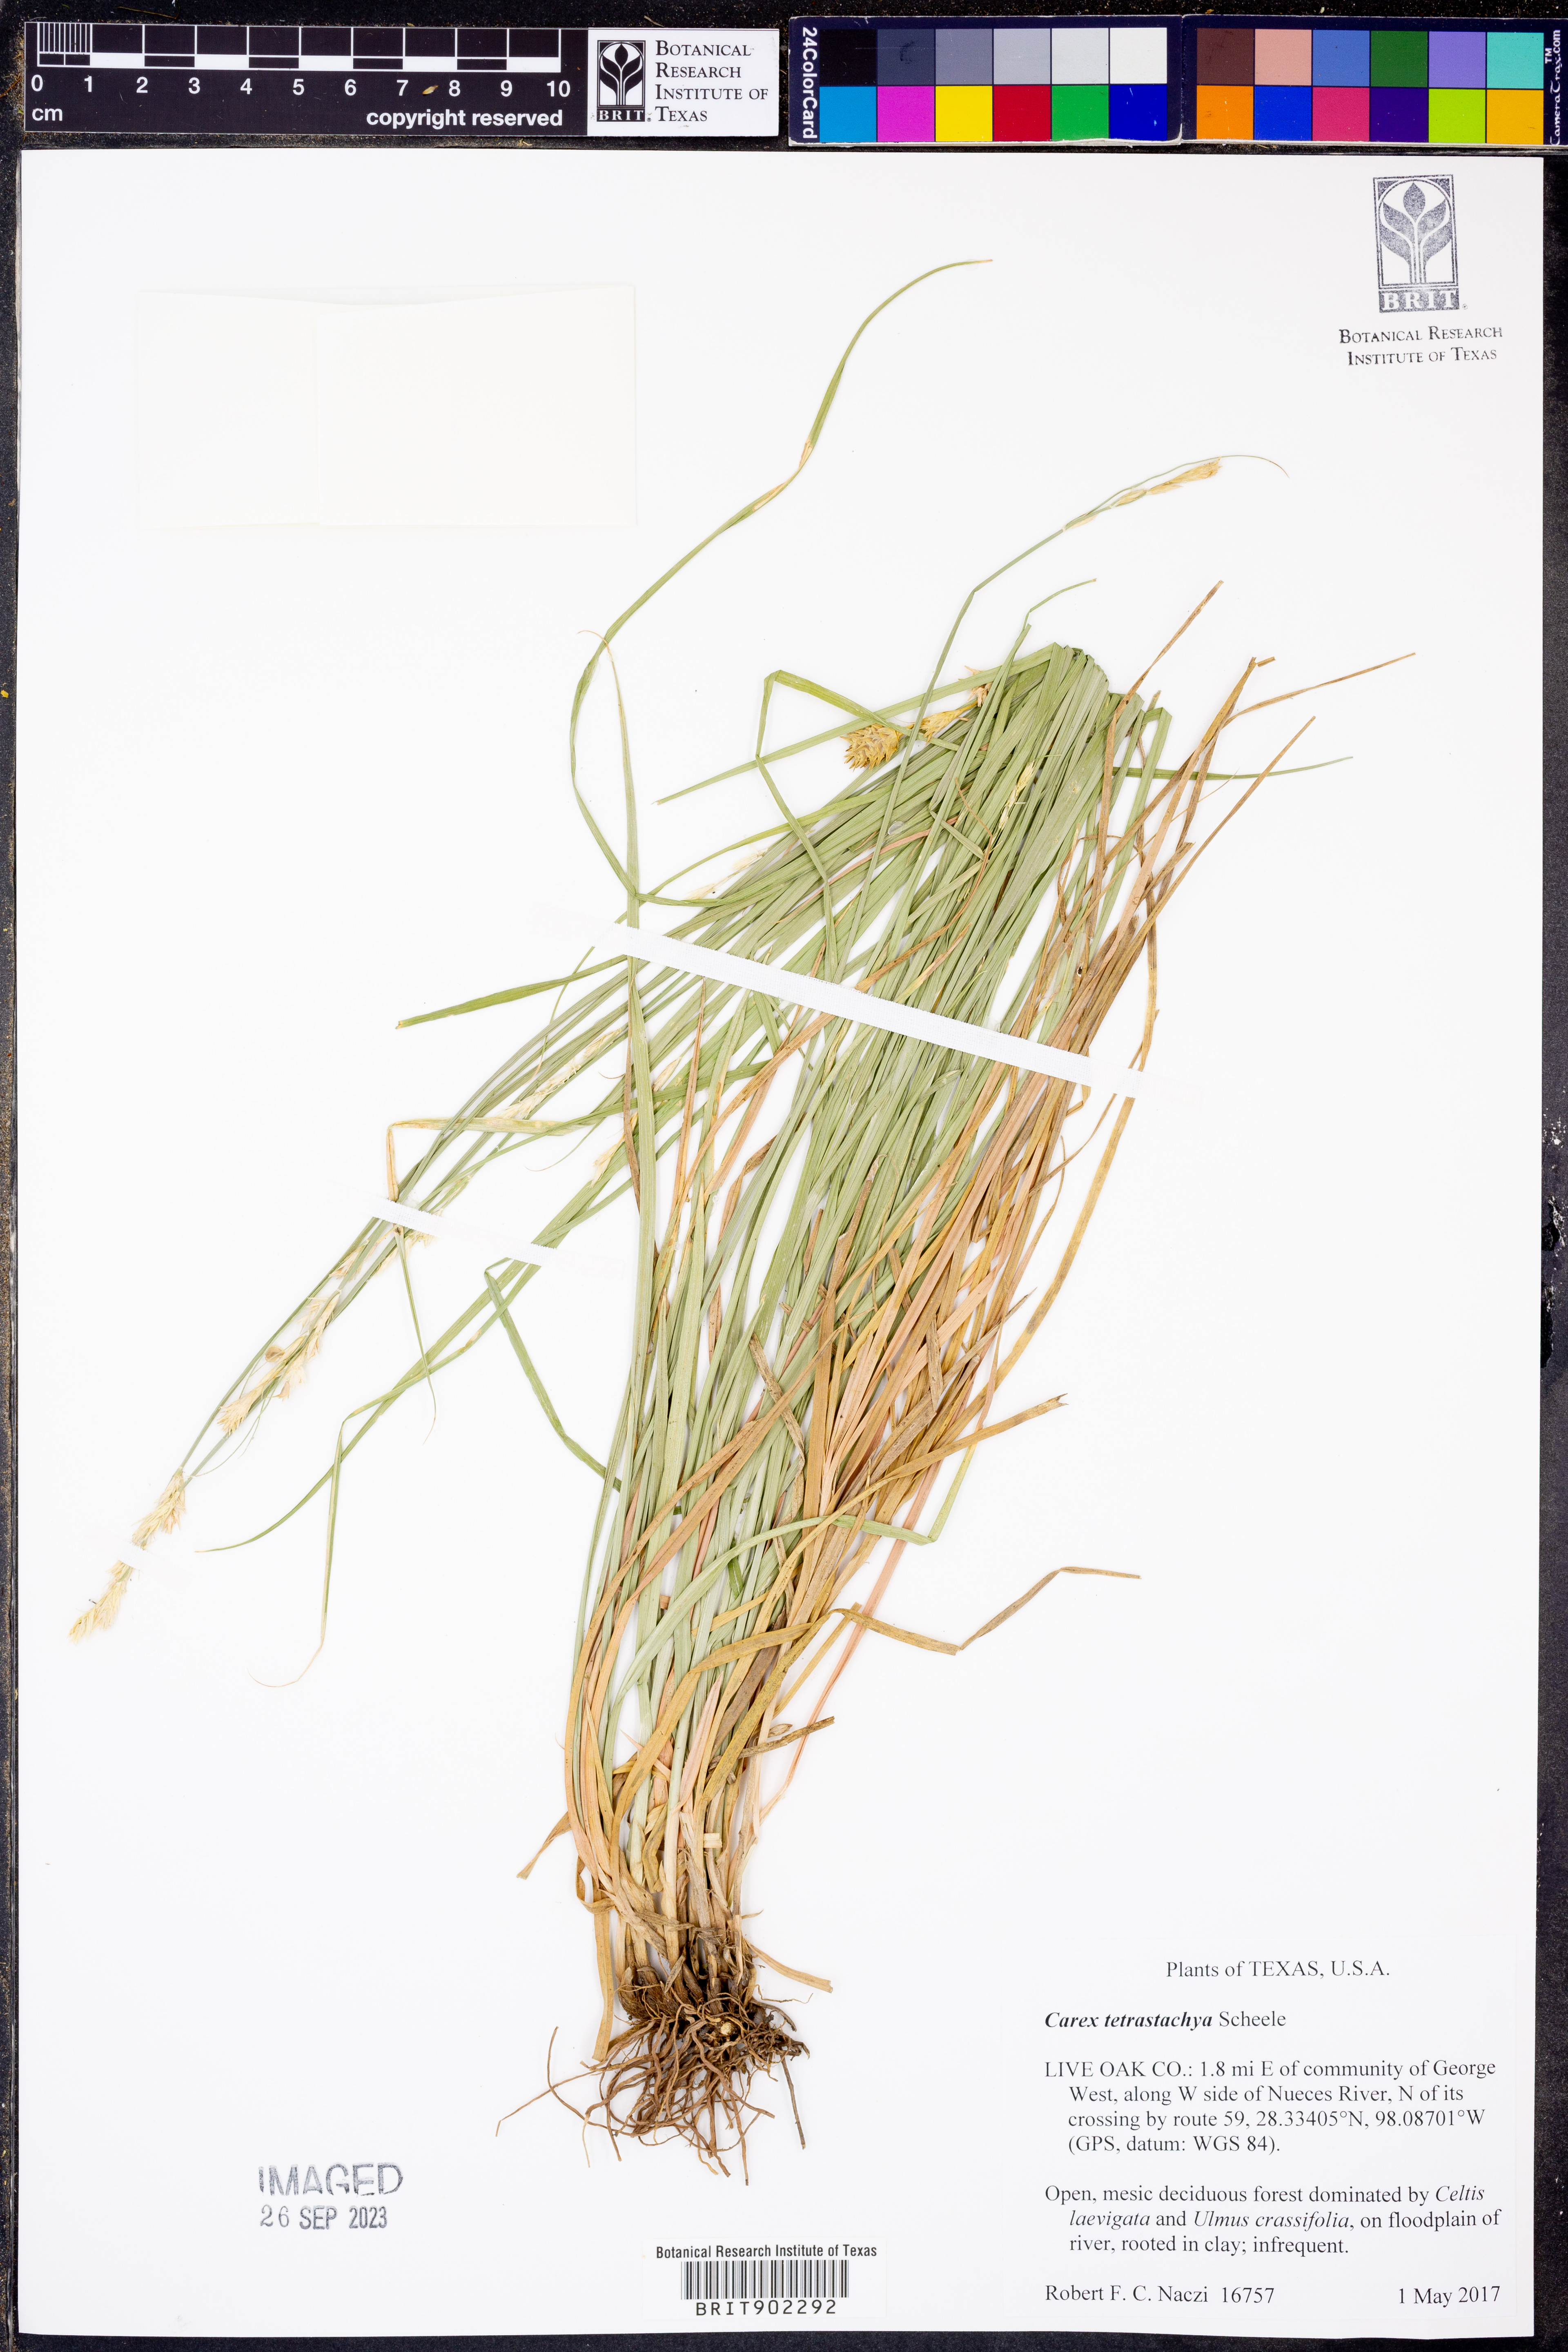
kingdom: Plantae
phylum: Tracheophyta
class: Liliopsida
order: Poales
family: Cyperaceae
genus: Carex
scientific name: Carex tetrastachya
